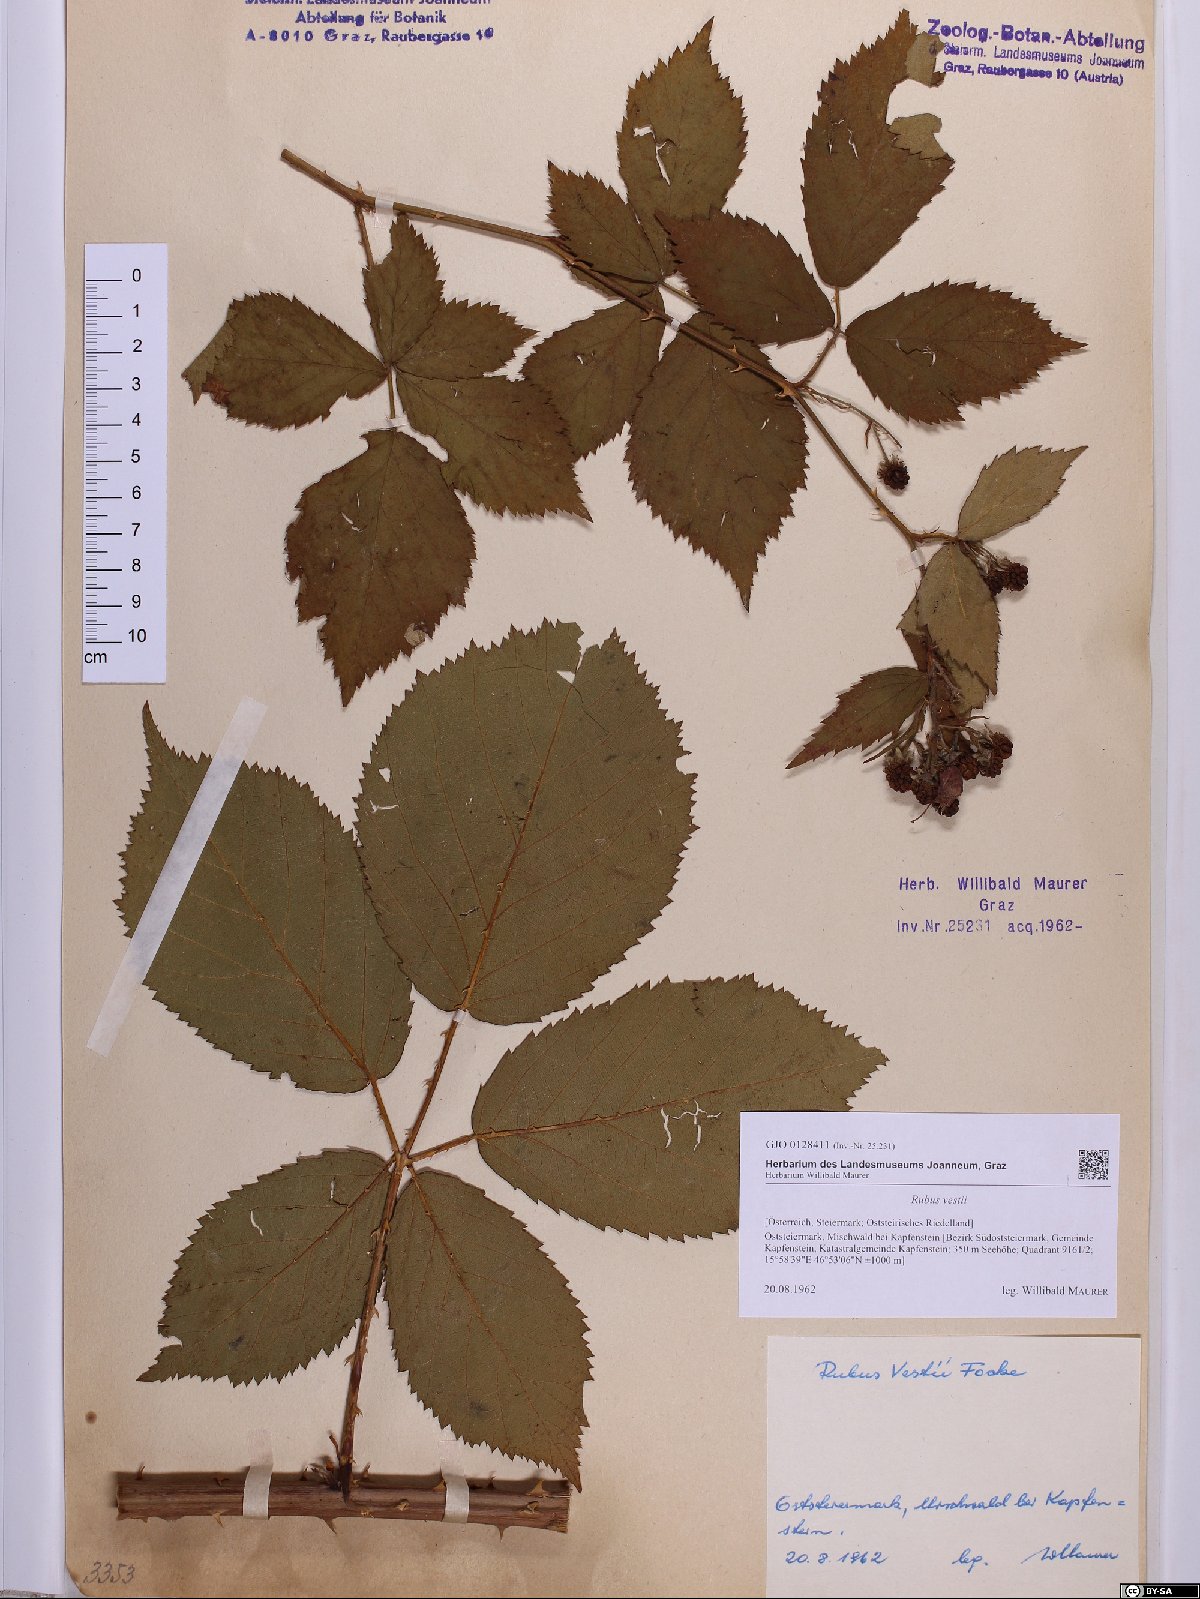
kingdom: Plantae
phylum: Tracheophyta
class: Magnoliopsida
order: Rosales
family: Rosaceae
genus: Rubus
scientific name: Rubus constrictus
